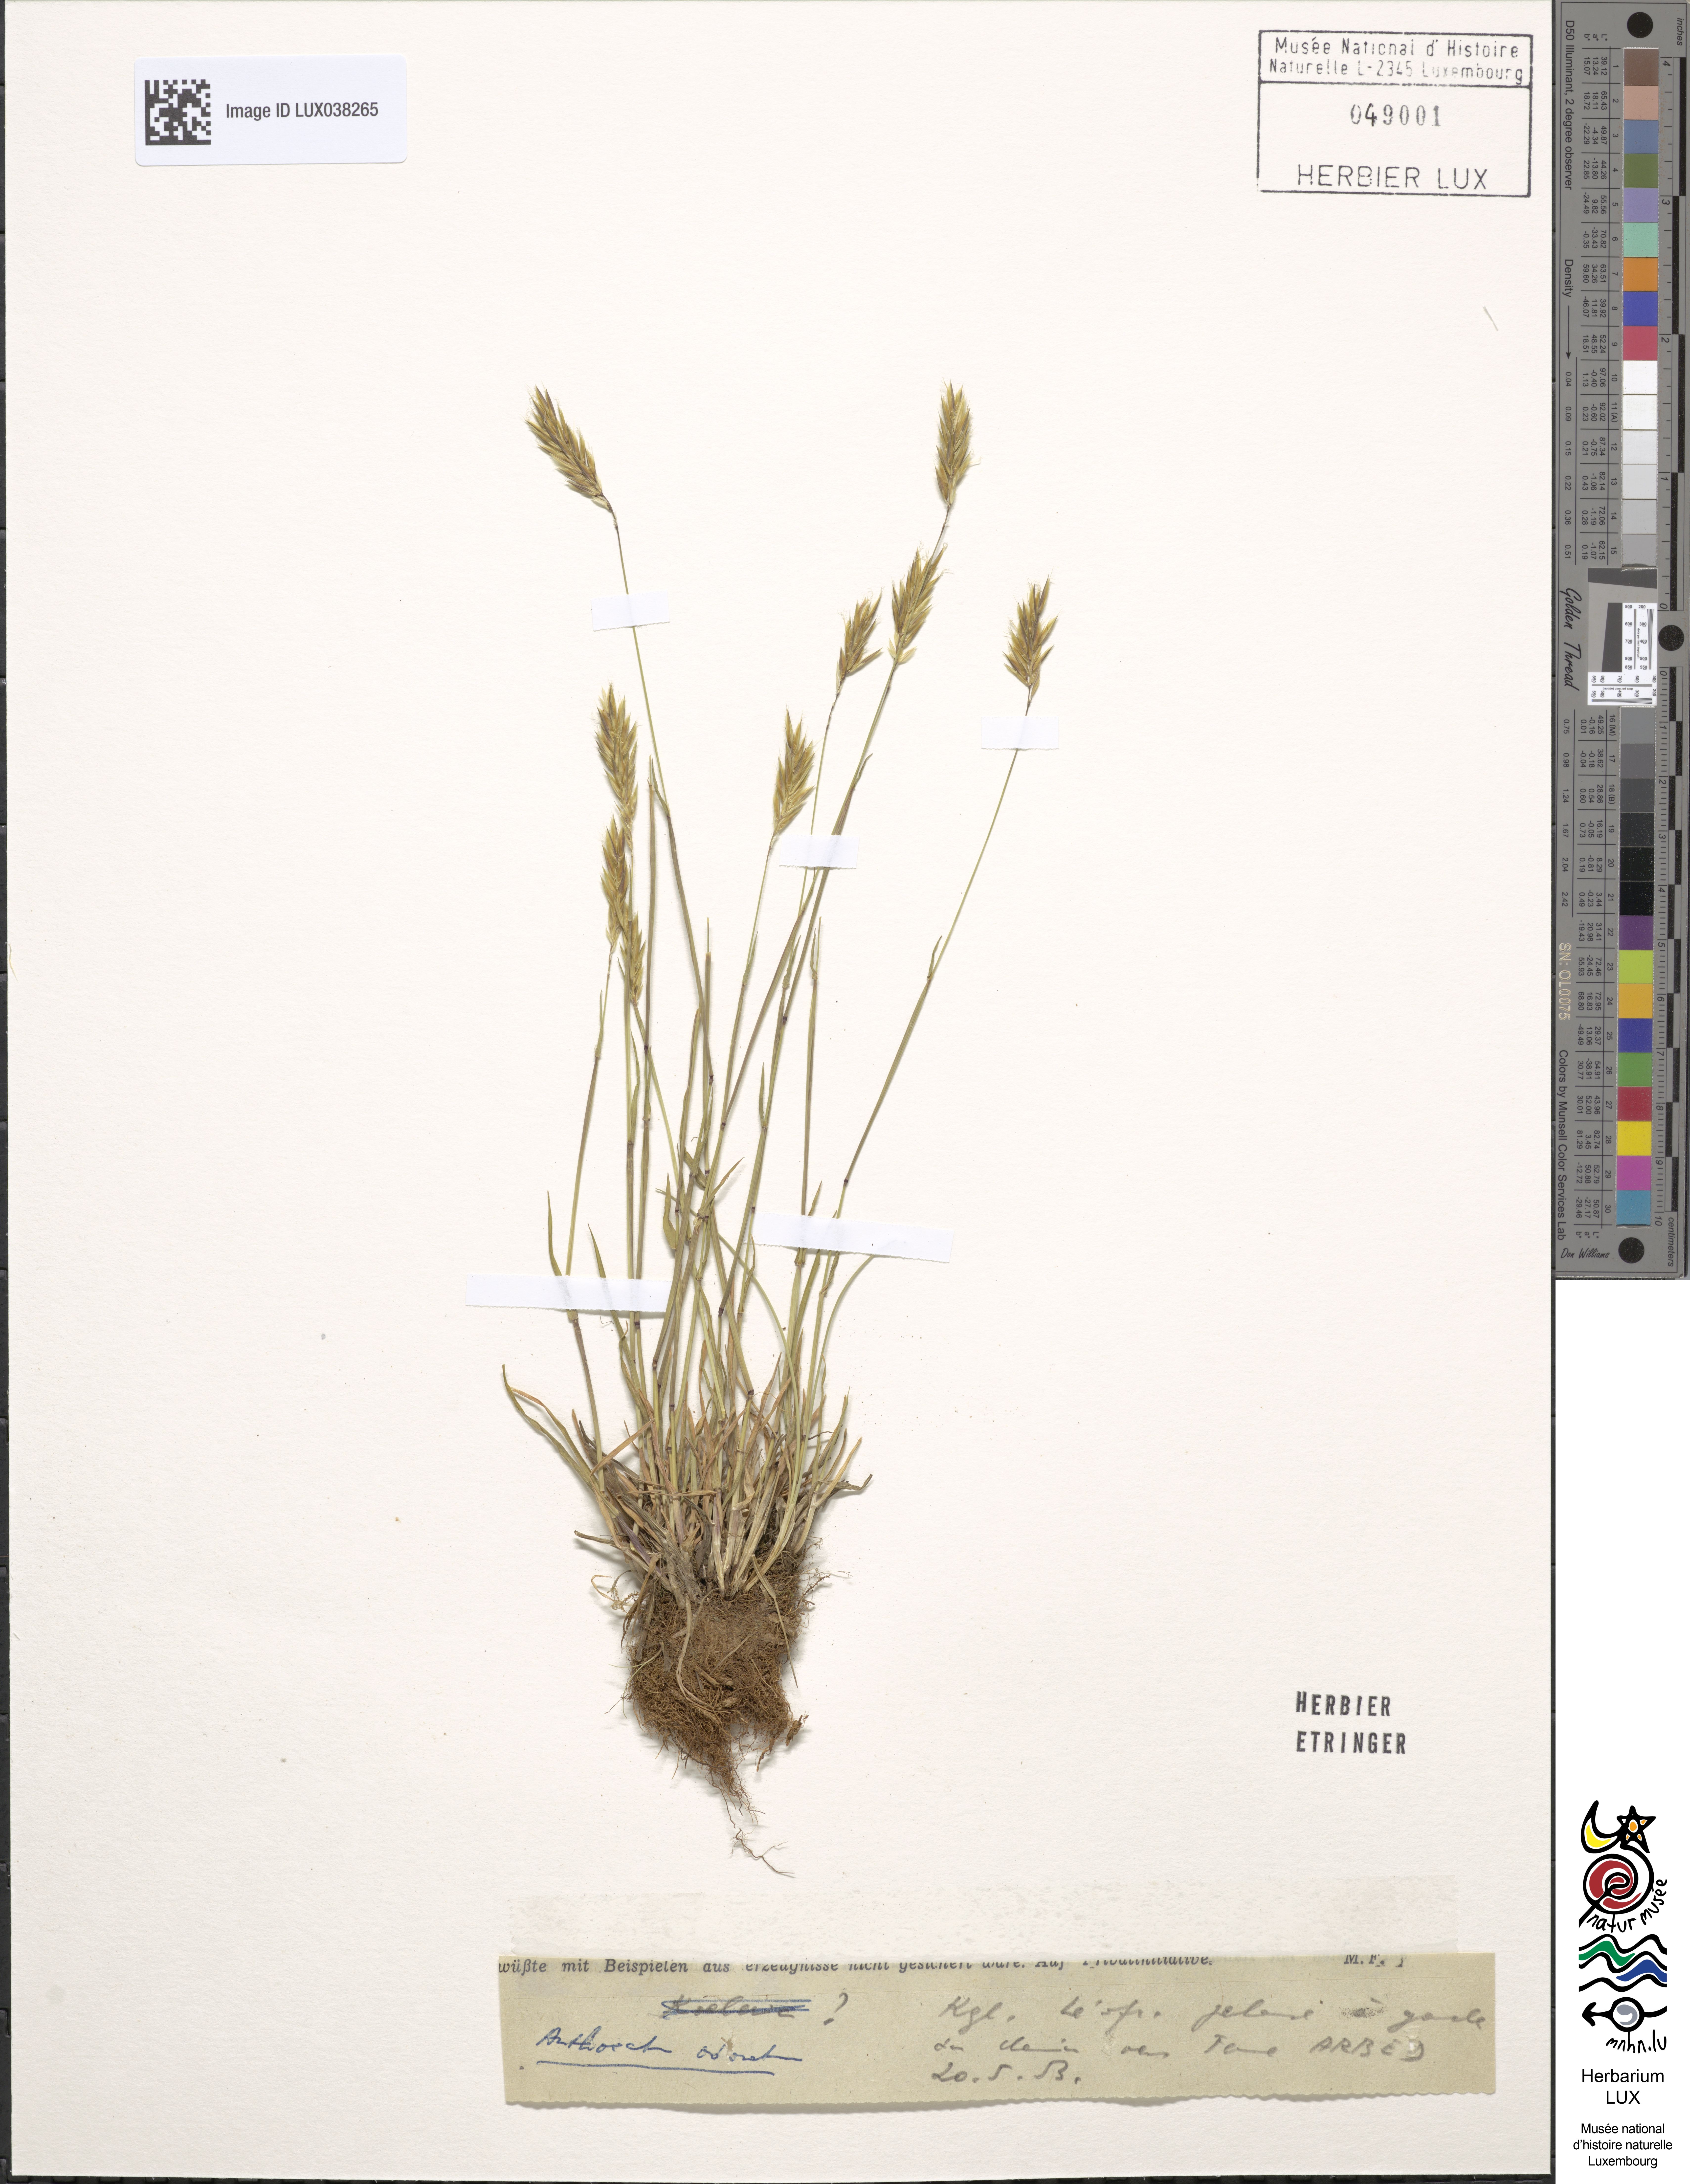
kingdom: Plantae
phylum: Tracheophyta
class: Liliopsida
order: Poales
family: Poaceae
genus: Anthoxanthum
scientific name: Anthoxanthum odoratum
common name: Sweet vernalgrass
